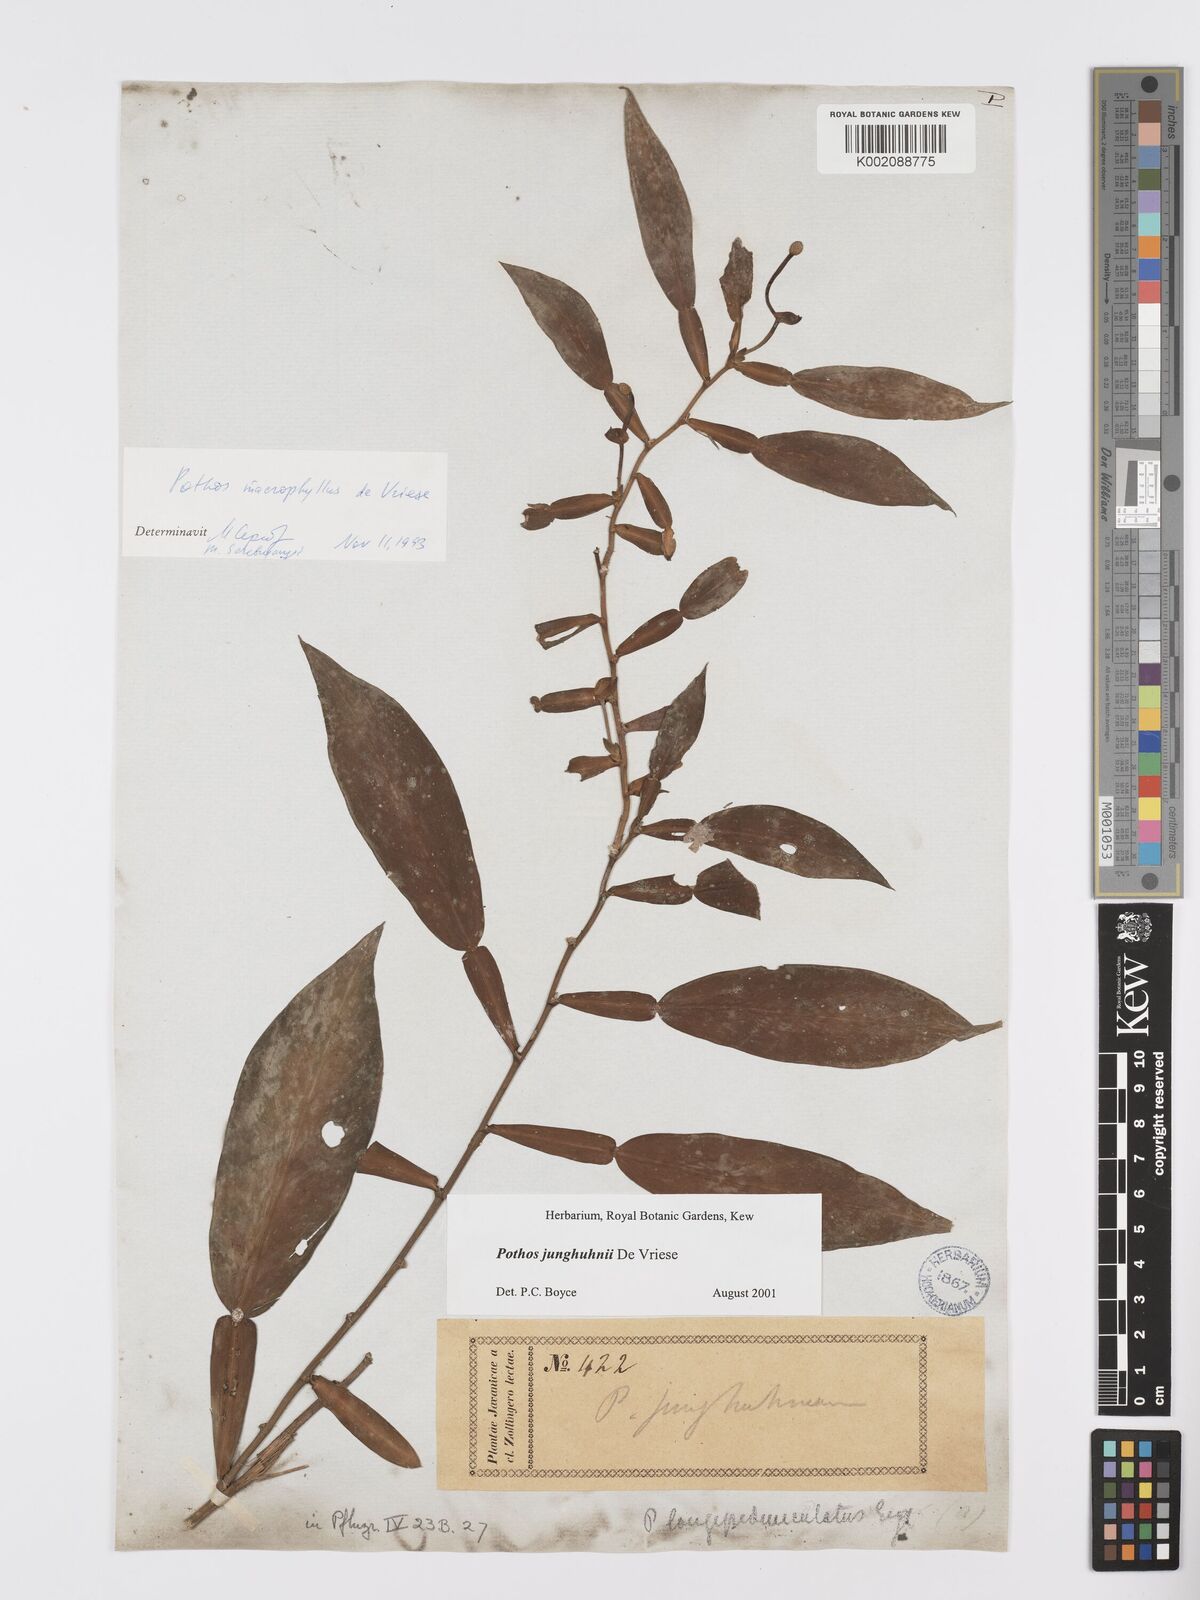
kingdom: Plantae
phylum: Tracheophyta
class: Liliopsida
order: Alismatales
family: Araceae
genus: Pothos
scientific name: Pothos junghuhnii
